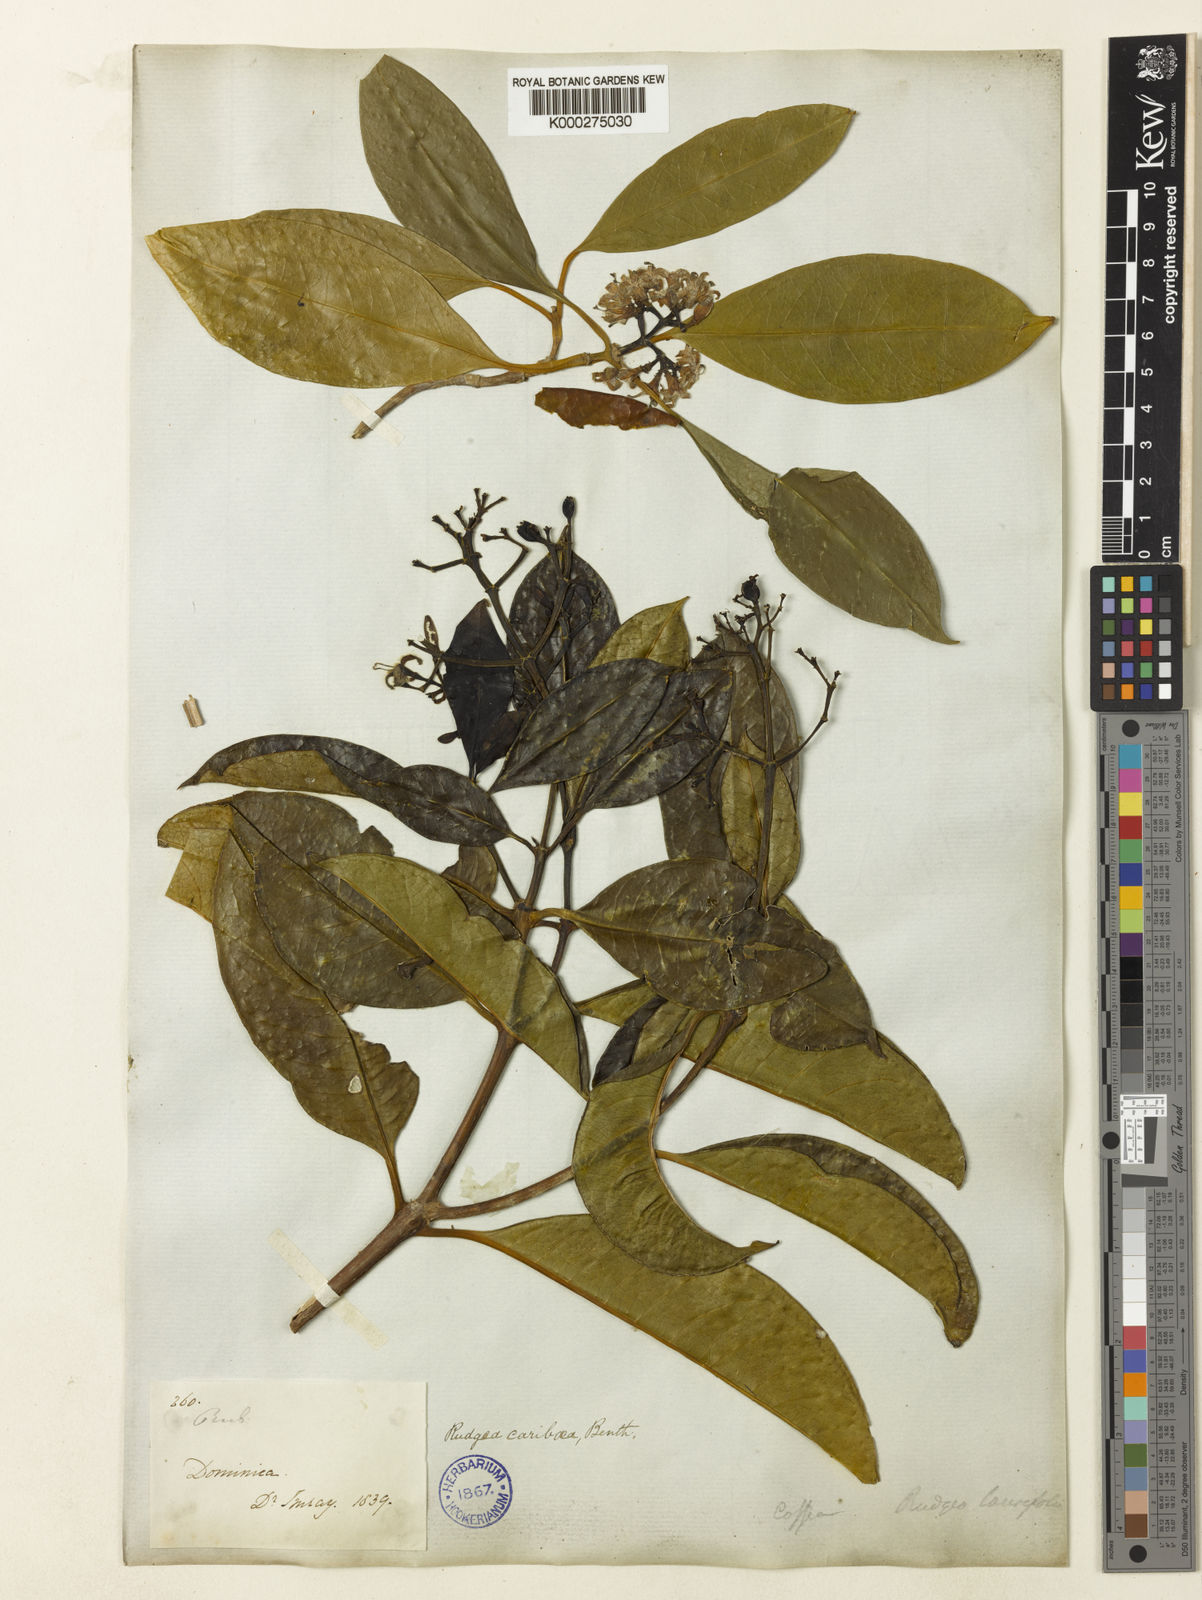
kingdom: Plantae
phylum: Tracheophyta
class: Magnoliopsida
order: Gentianales
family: Rubiaceae
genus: Rudgea
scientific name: Rudgea citrifolia
